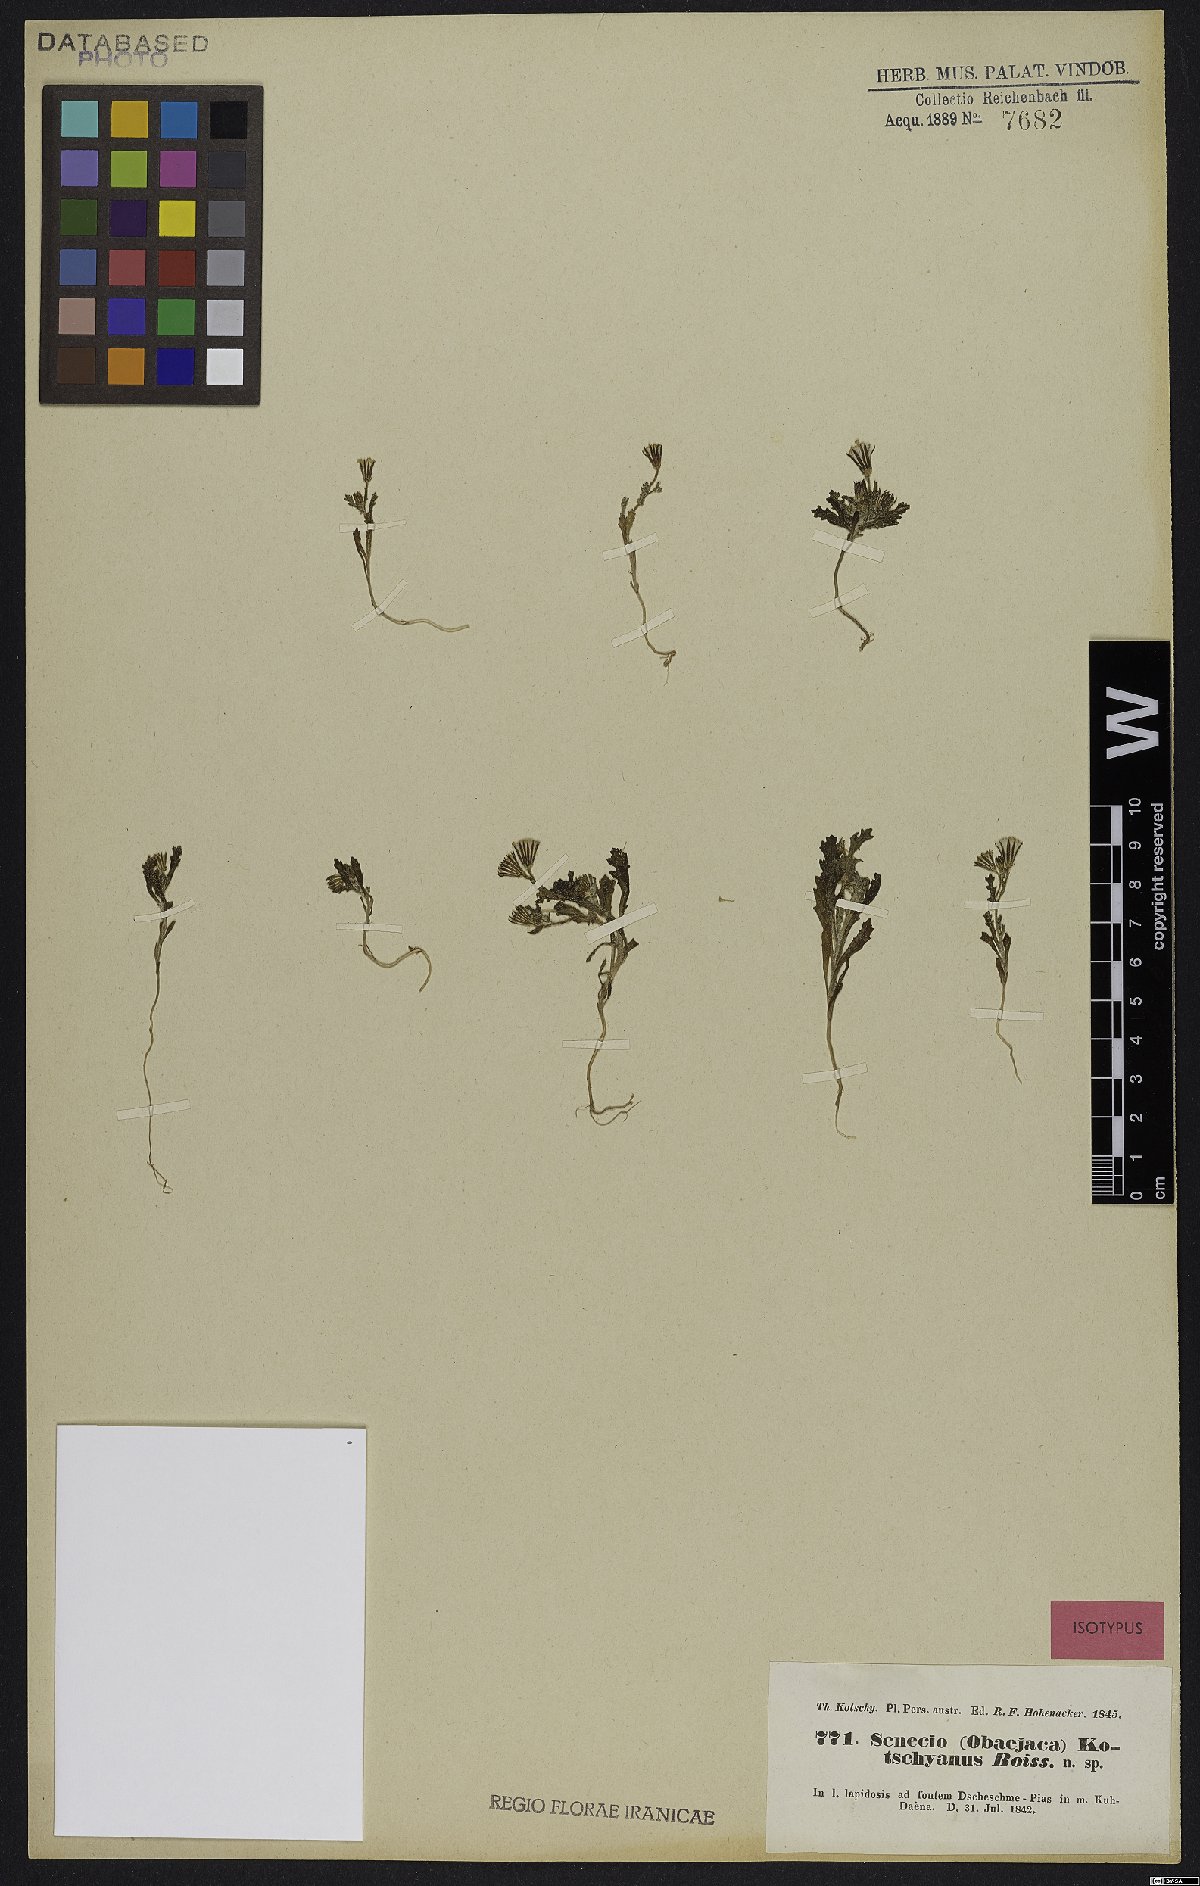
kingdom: Plantae
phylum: Tracheophyta
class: Magnoliopsida
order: Asterales
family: Asteraceae
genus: Senecio
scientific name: Senecio kotschyanus
